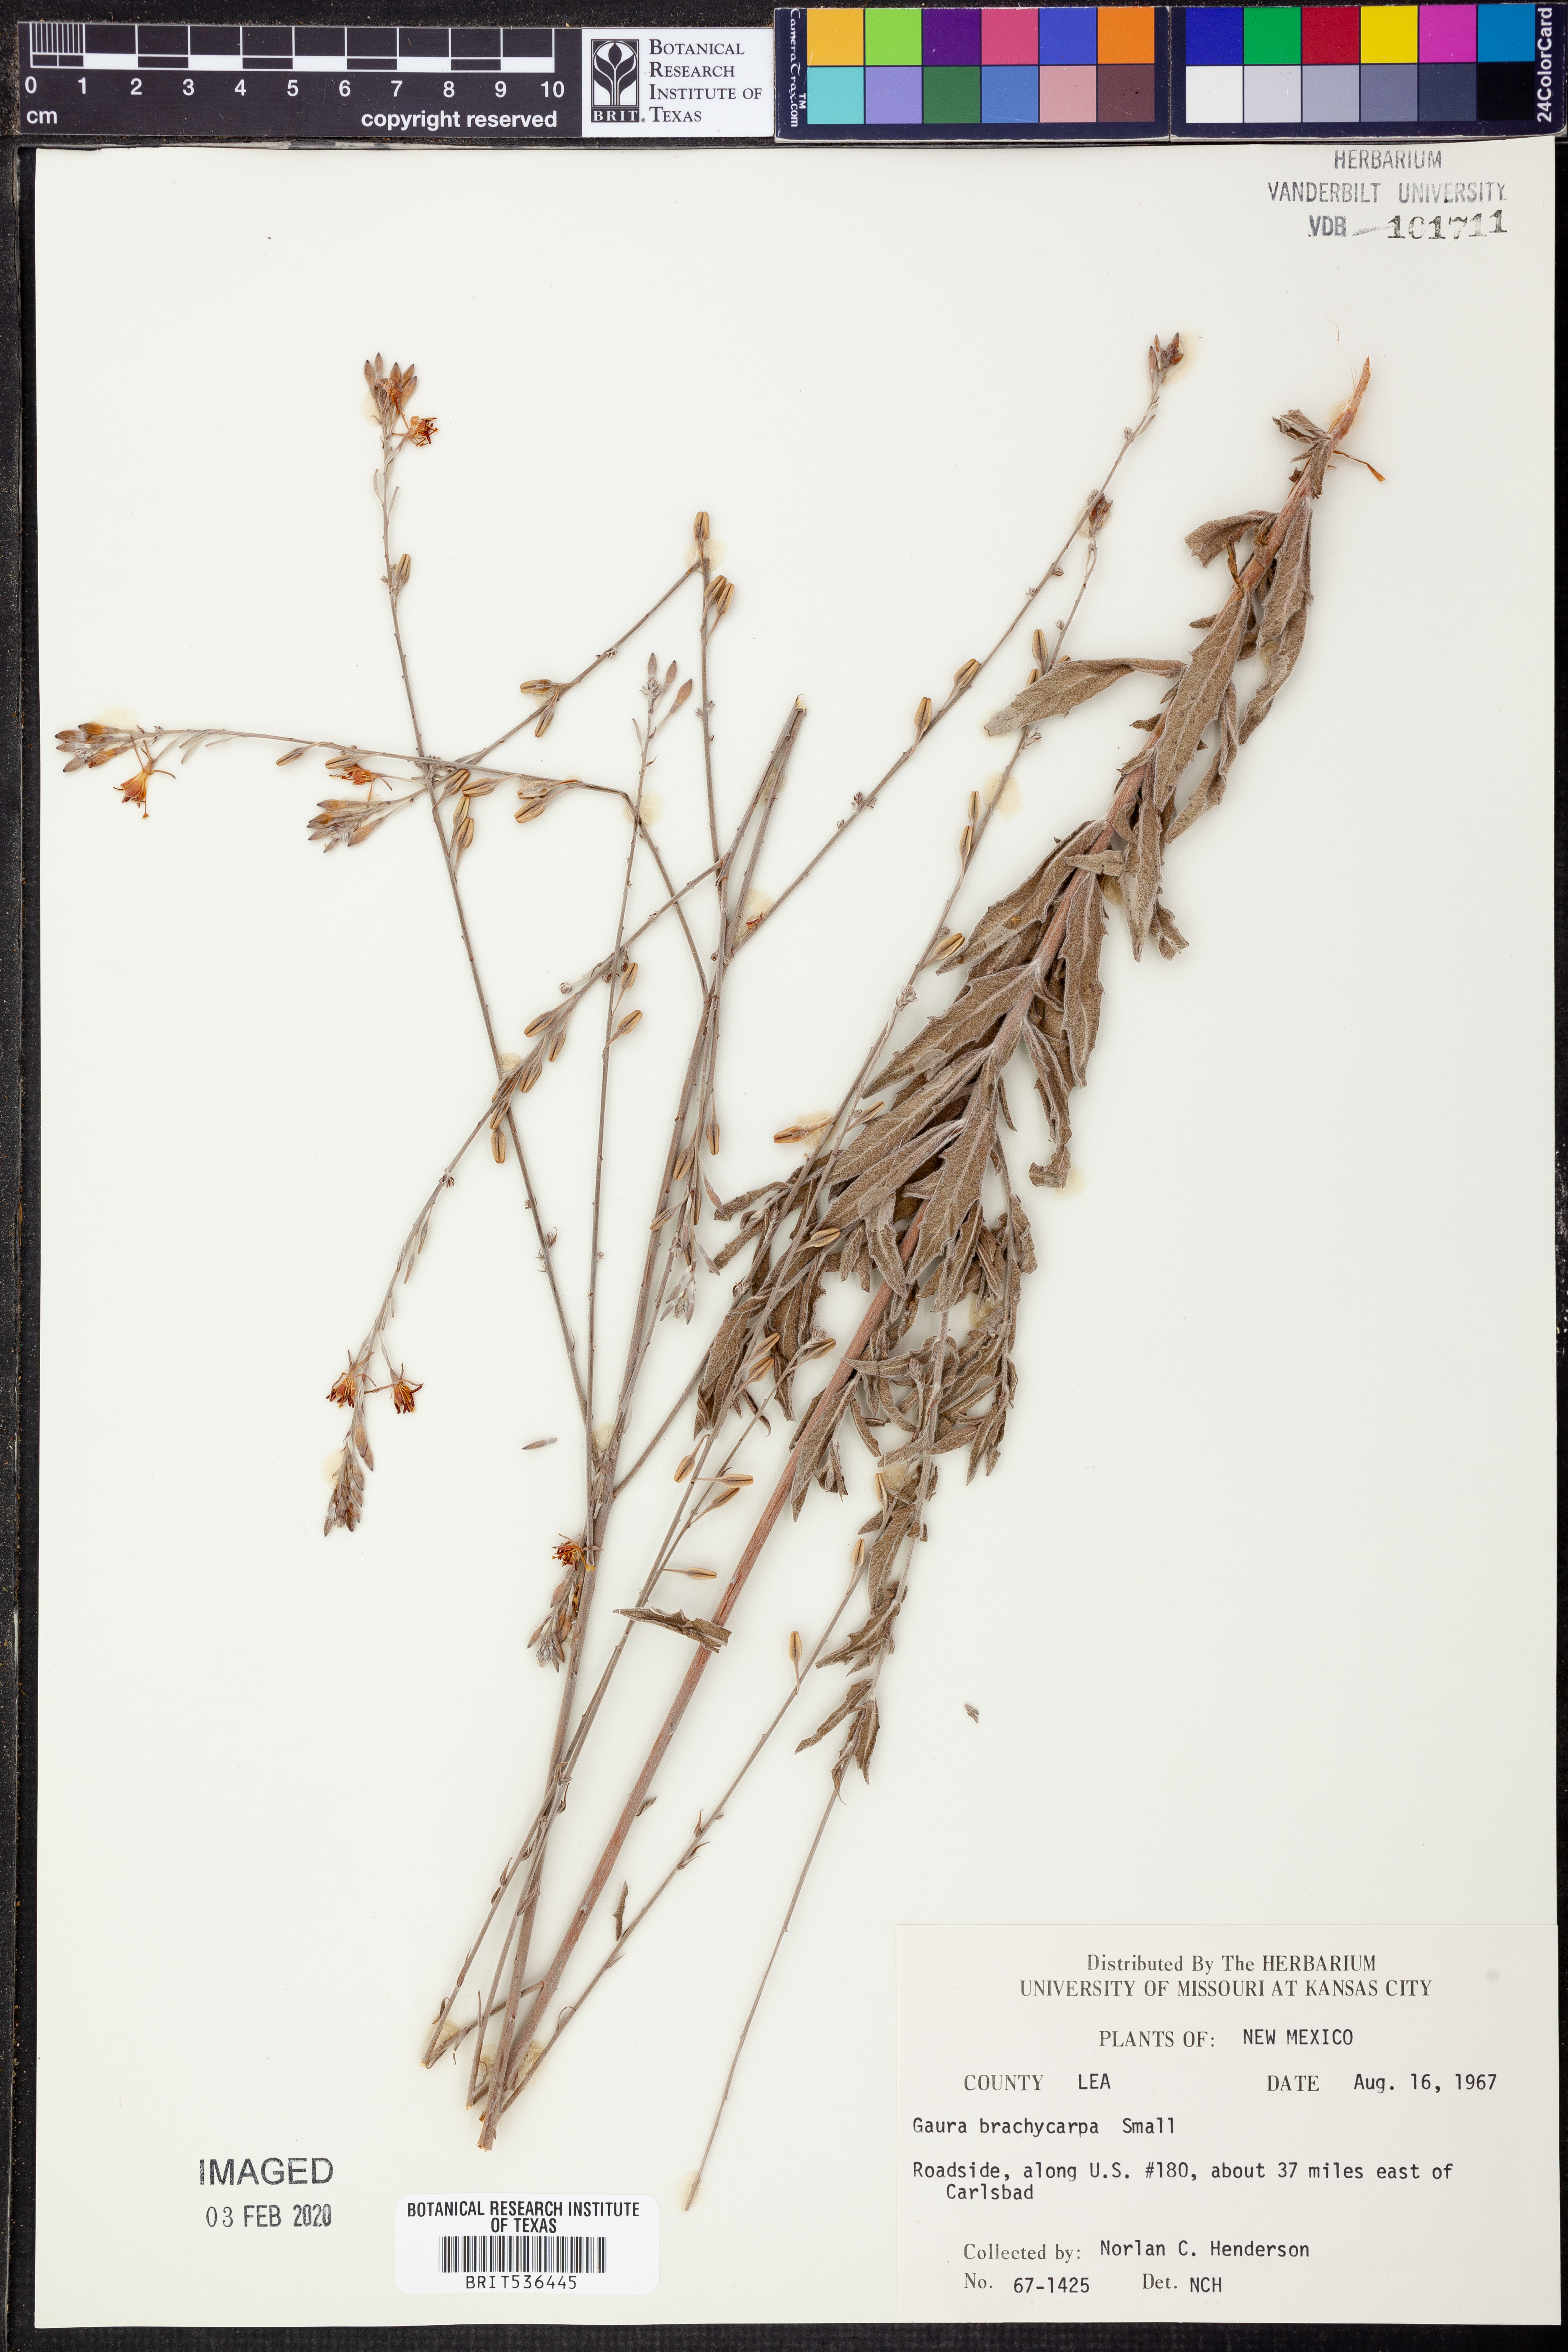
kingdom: Plantae
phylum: Tracheophyta
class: Magnoliopsida
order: Myrtales
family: Onagraceae
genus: Oenothera
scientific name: Oenothera patriciae
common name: Plains beeblossom
